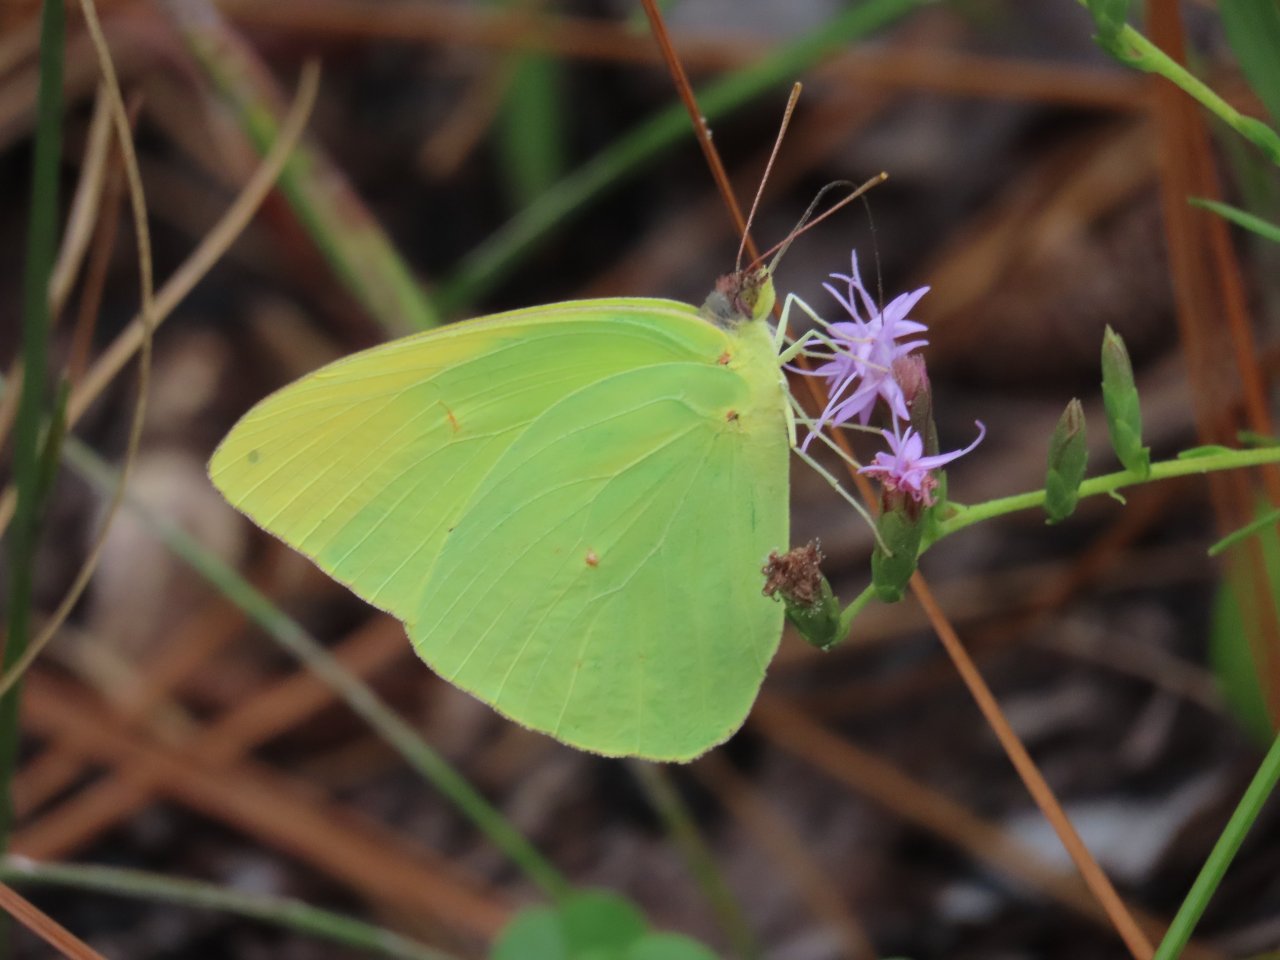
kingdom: Animalia
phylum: Arthropoda
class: Insecta
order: Lepidoptera
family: Pieridae
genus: Phoebis
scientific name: Phoebis sennae
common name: Cloudless Sulphur
